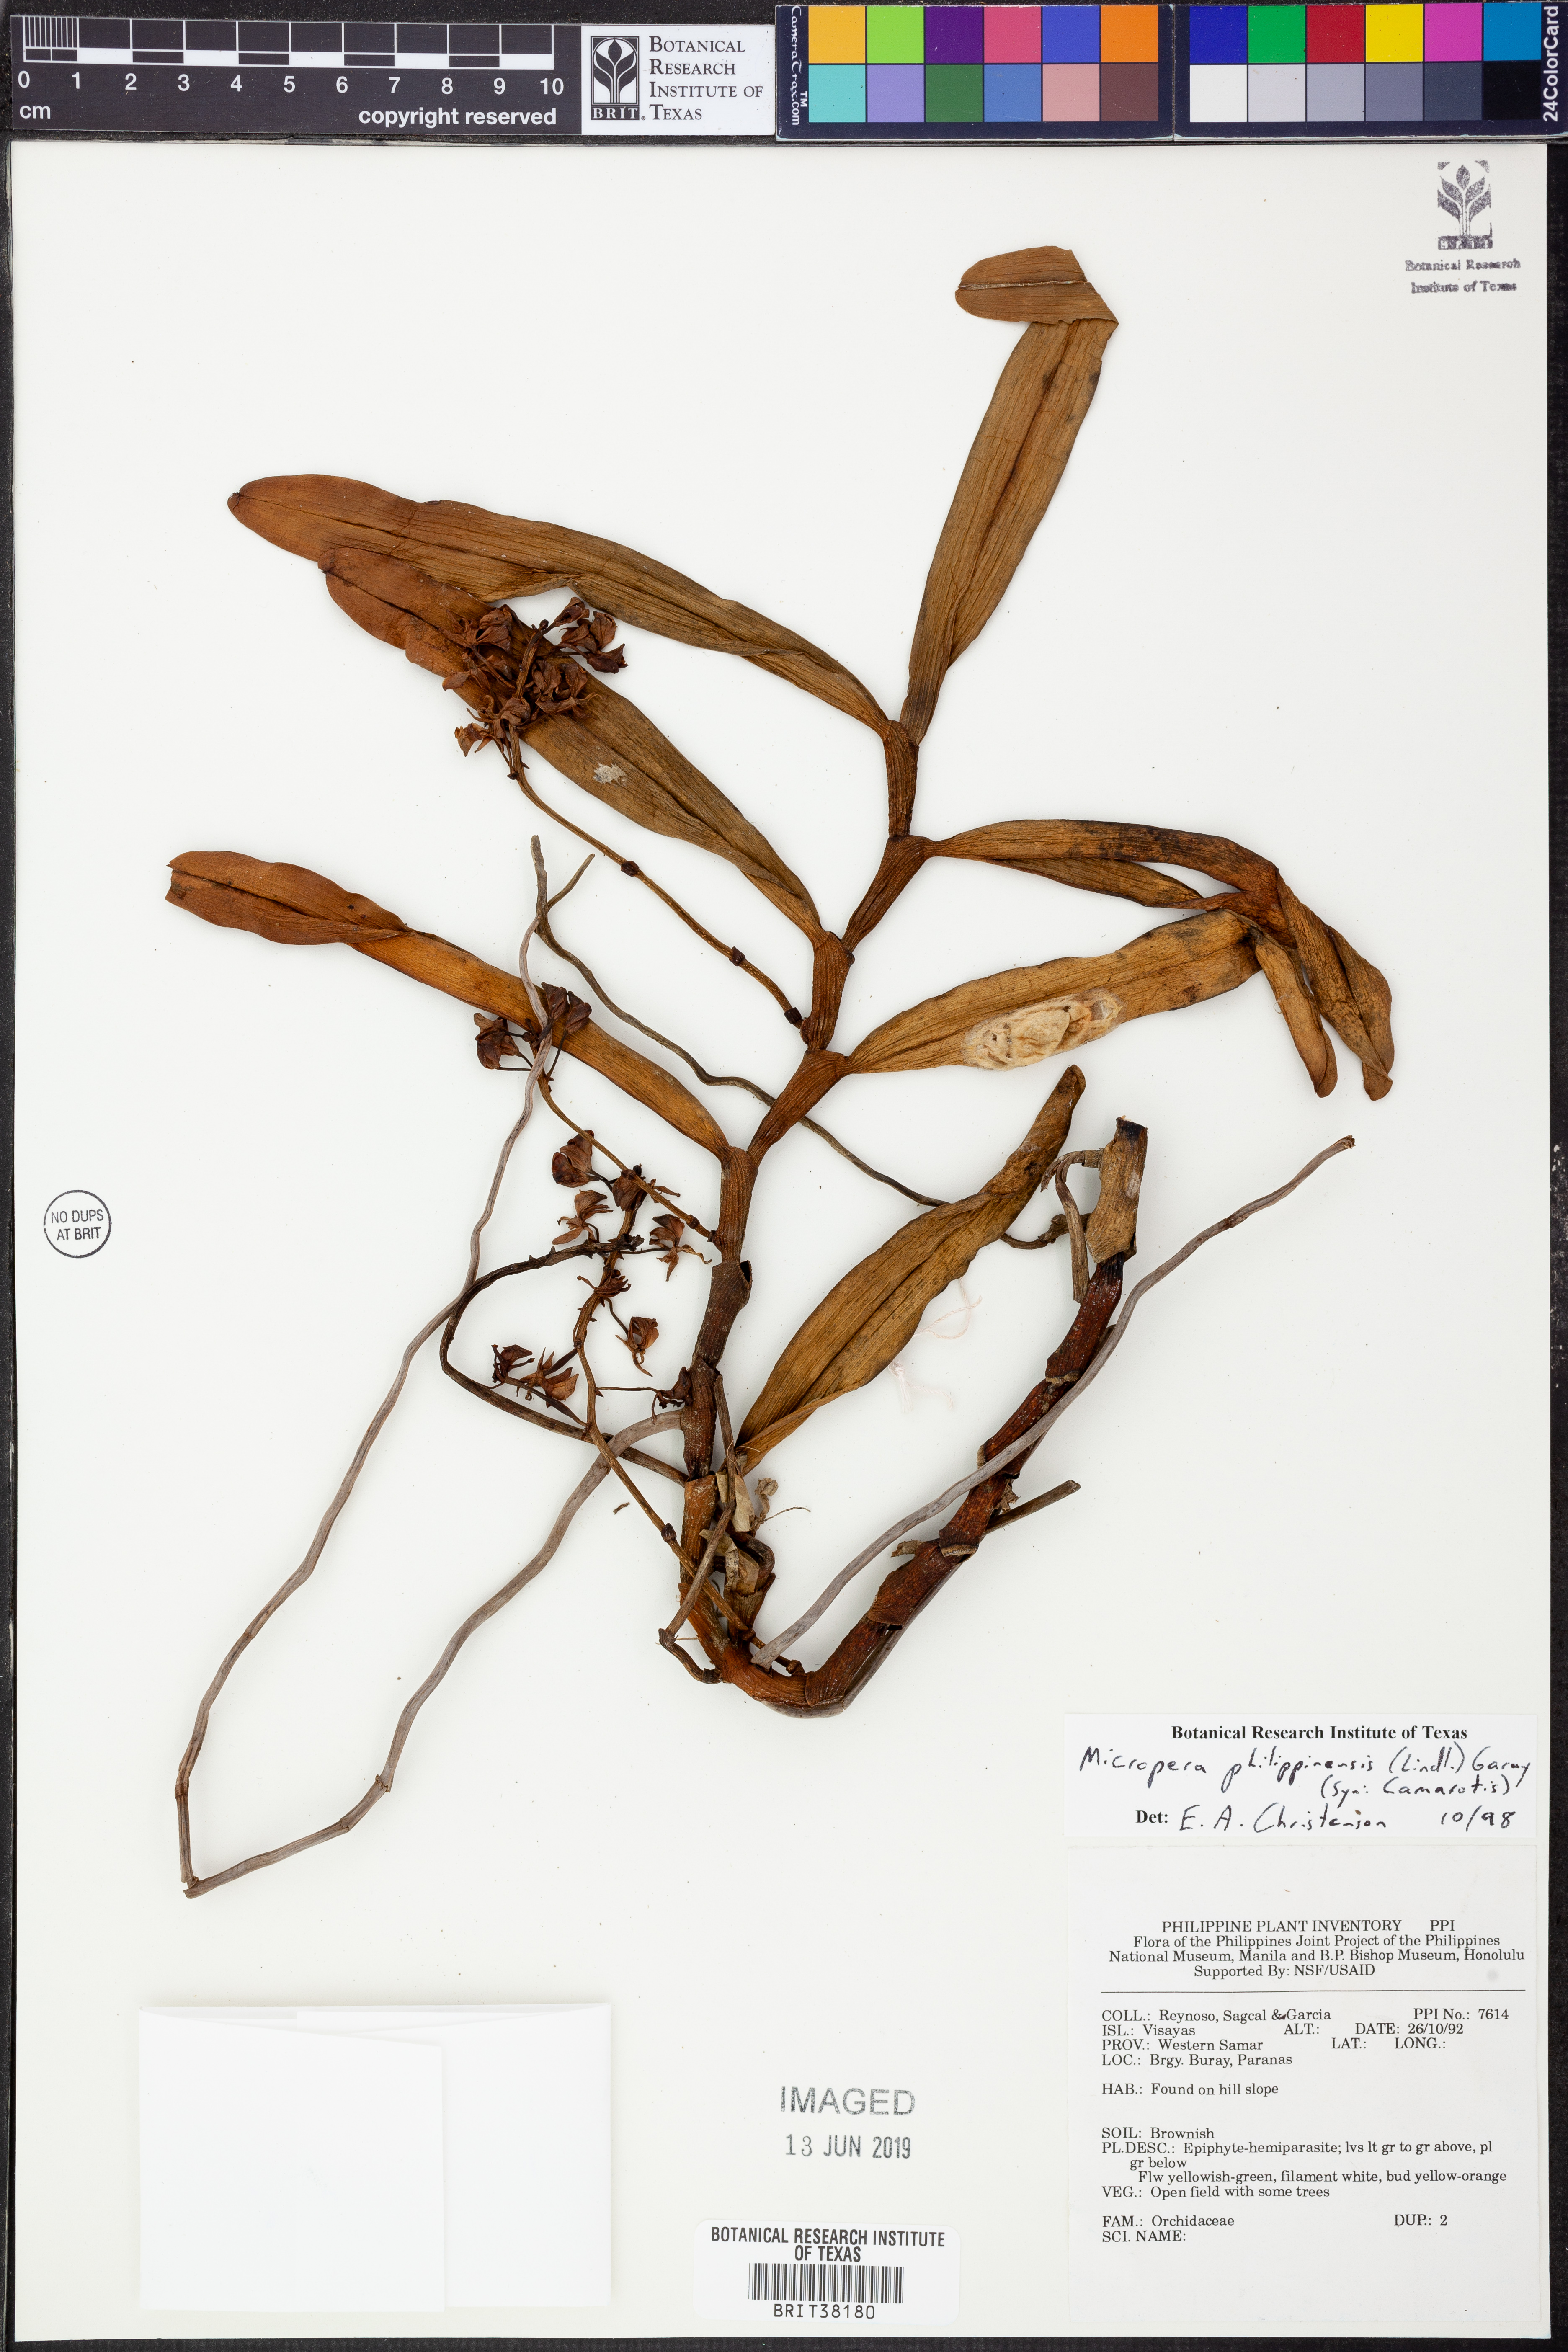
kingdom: Plantae
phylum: Tracheophyta
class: Liliopsida
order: Asparagales
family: Orchidaceae
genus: Micropera
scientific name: Micropera philippinensis
